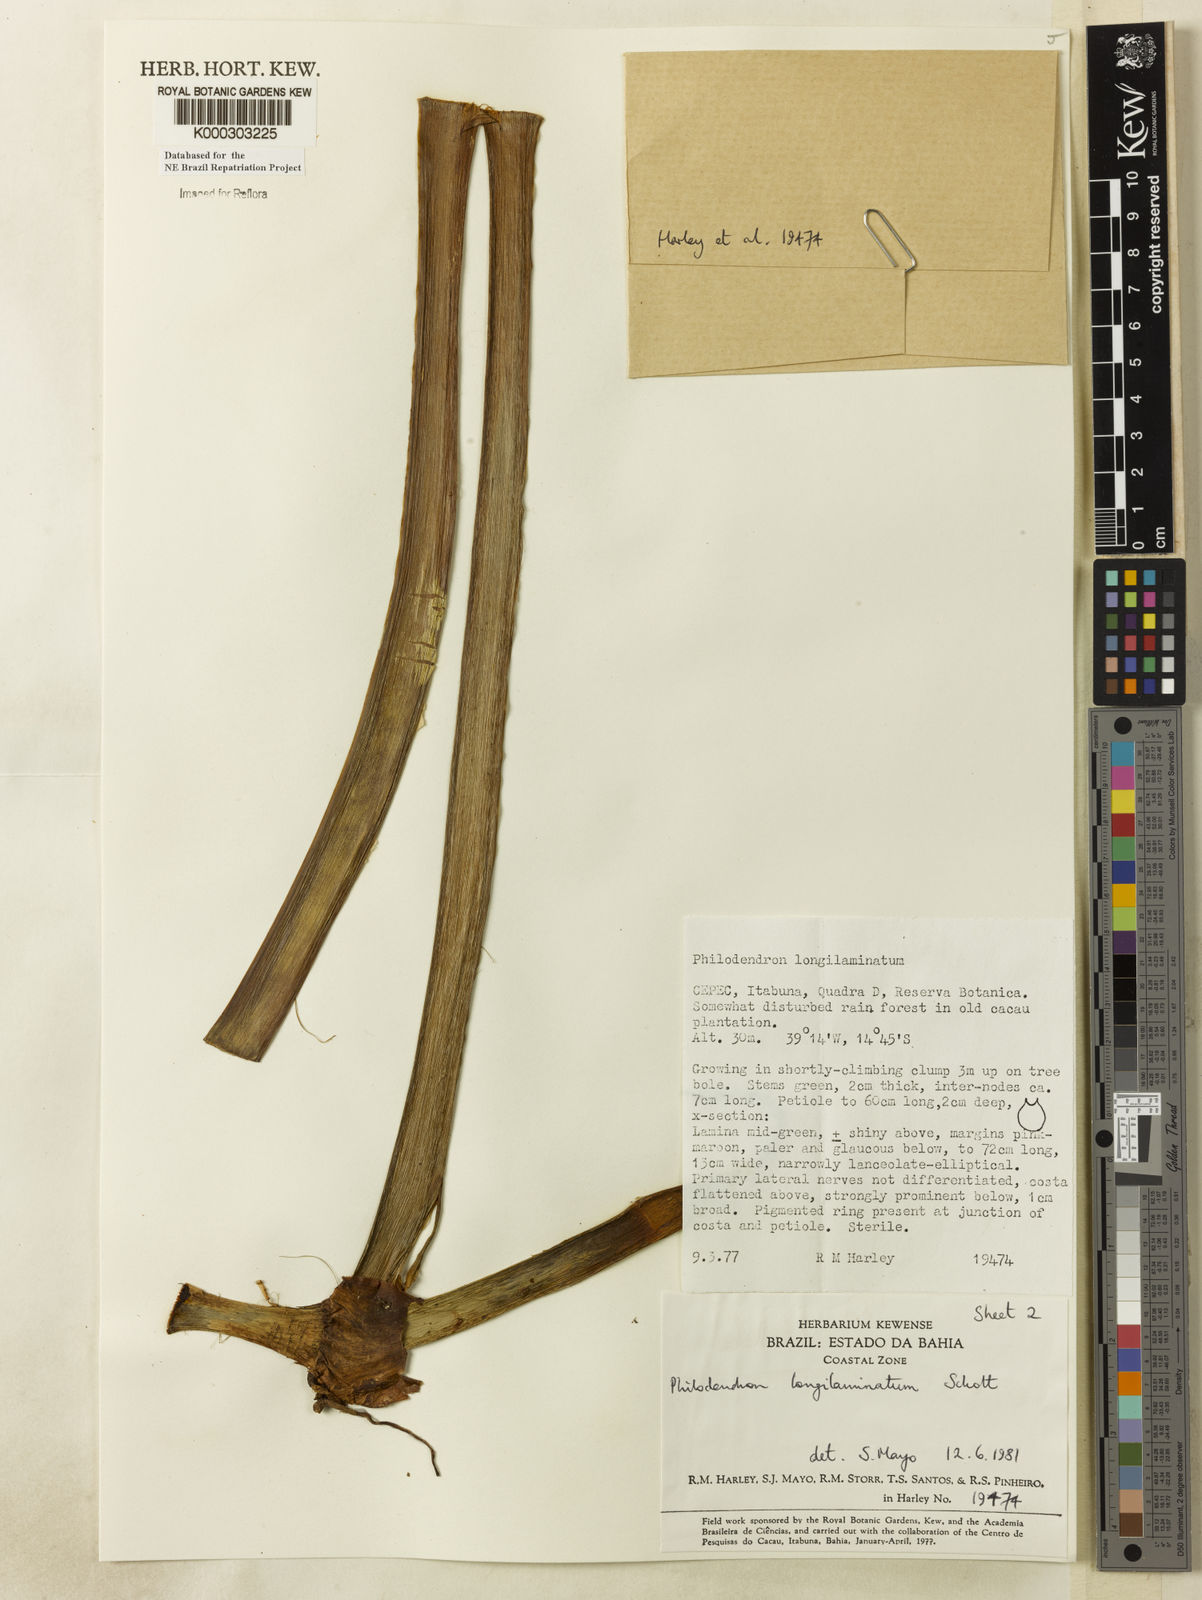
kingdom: Plantae
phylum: Tracheophyta
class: Liliopsida
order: Alismatales
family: Araceae
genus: Philodendron
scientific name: Philodendron longilaminatum
